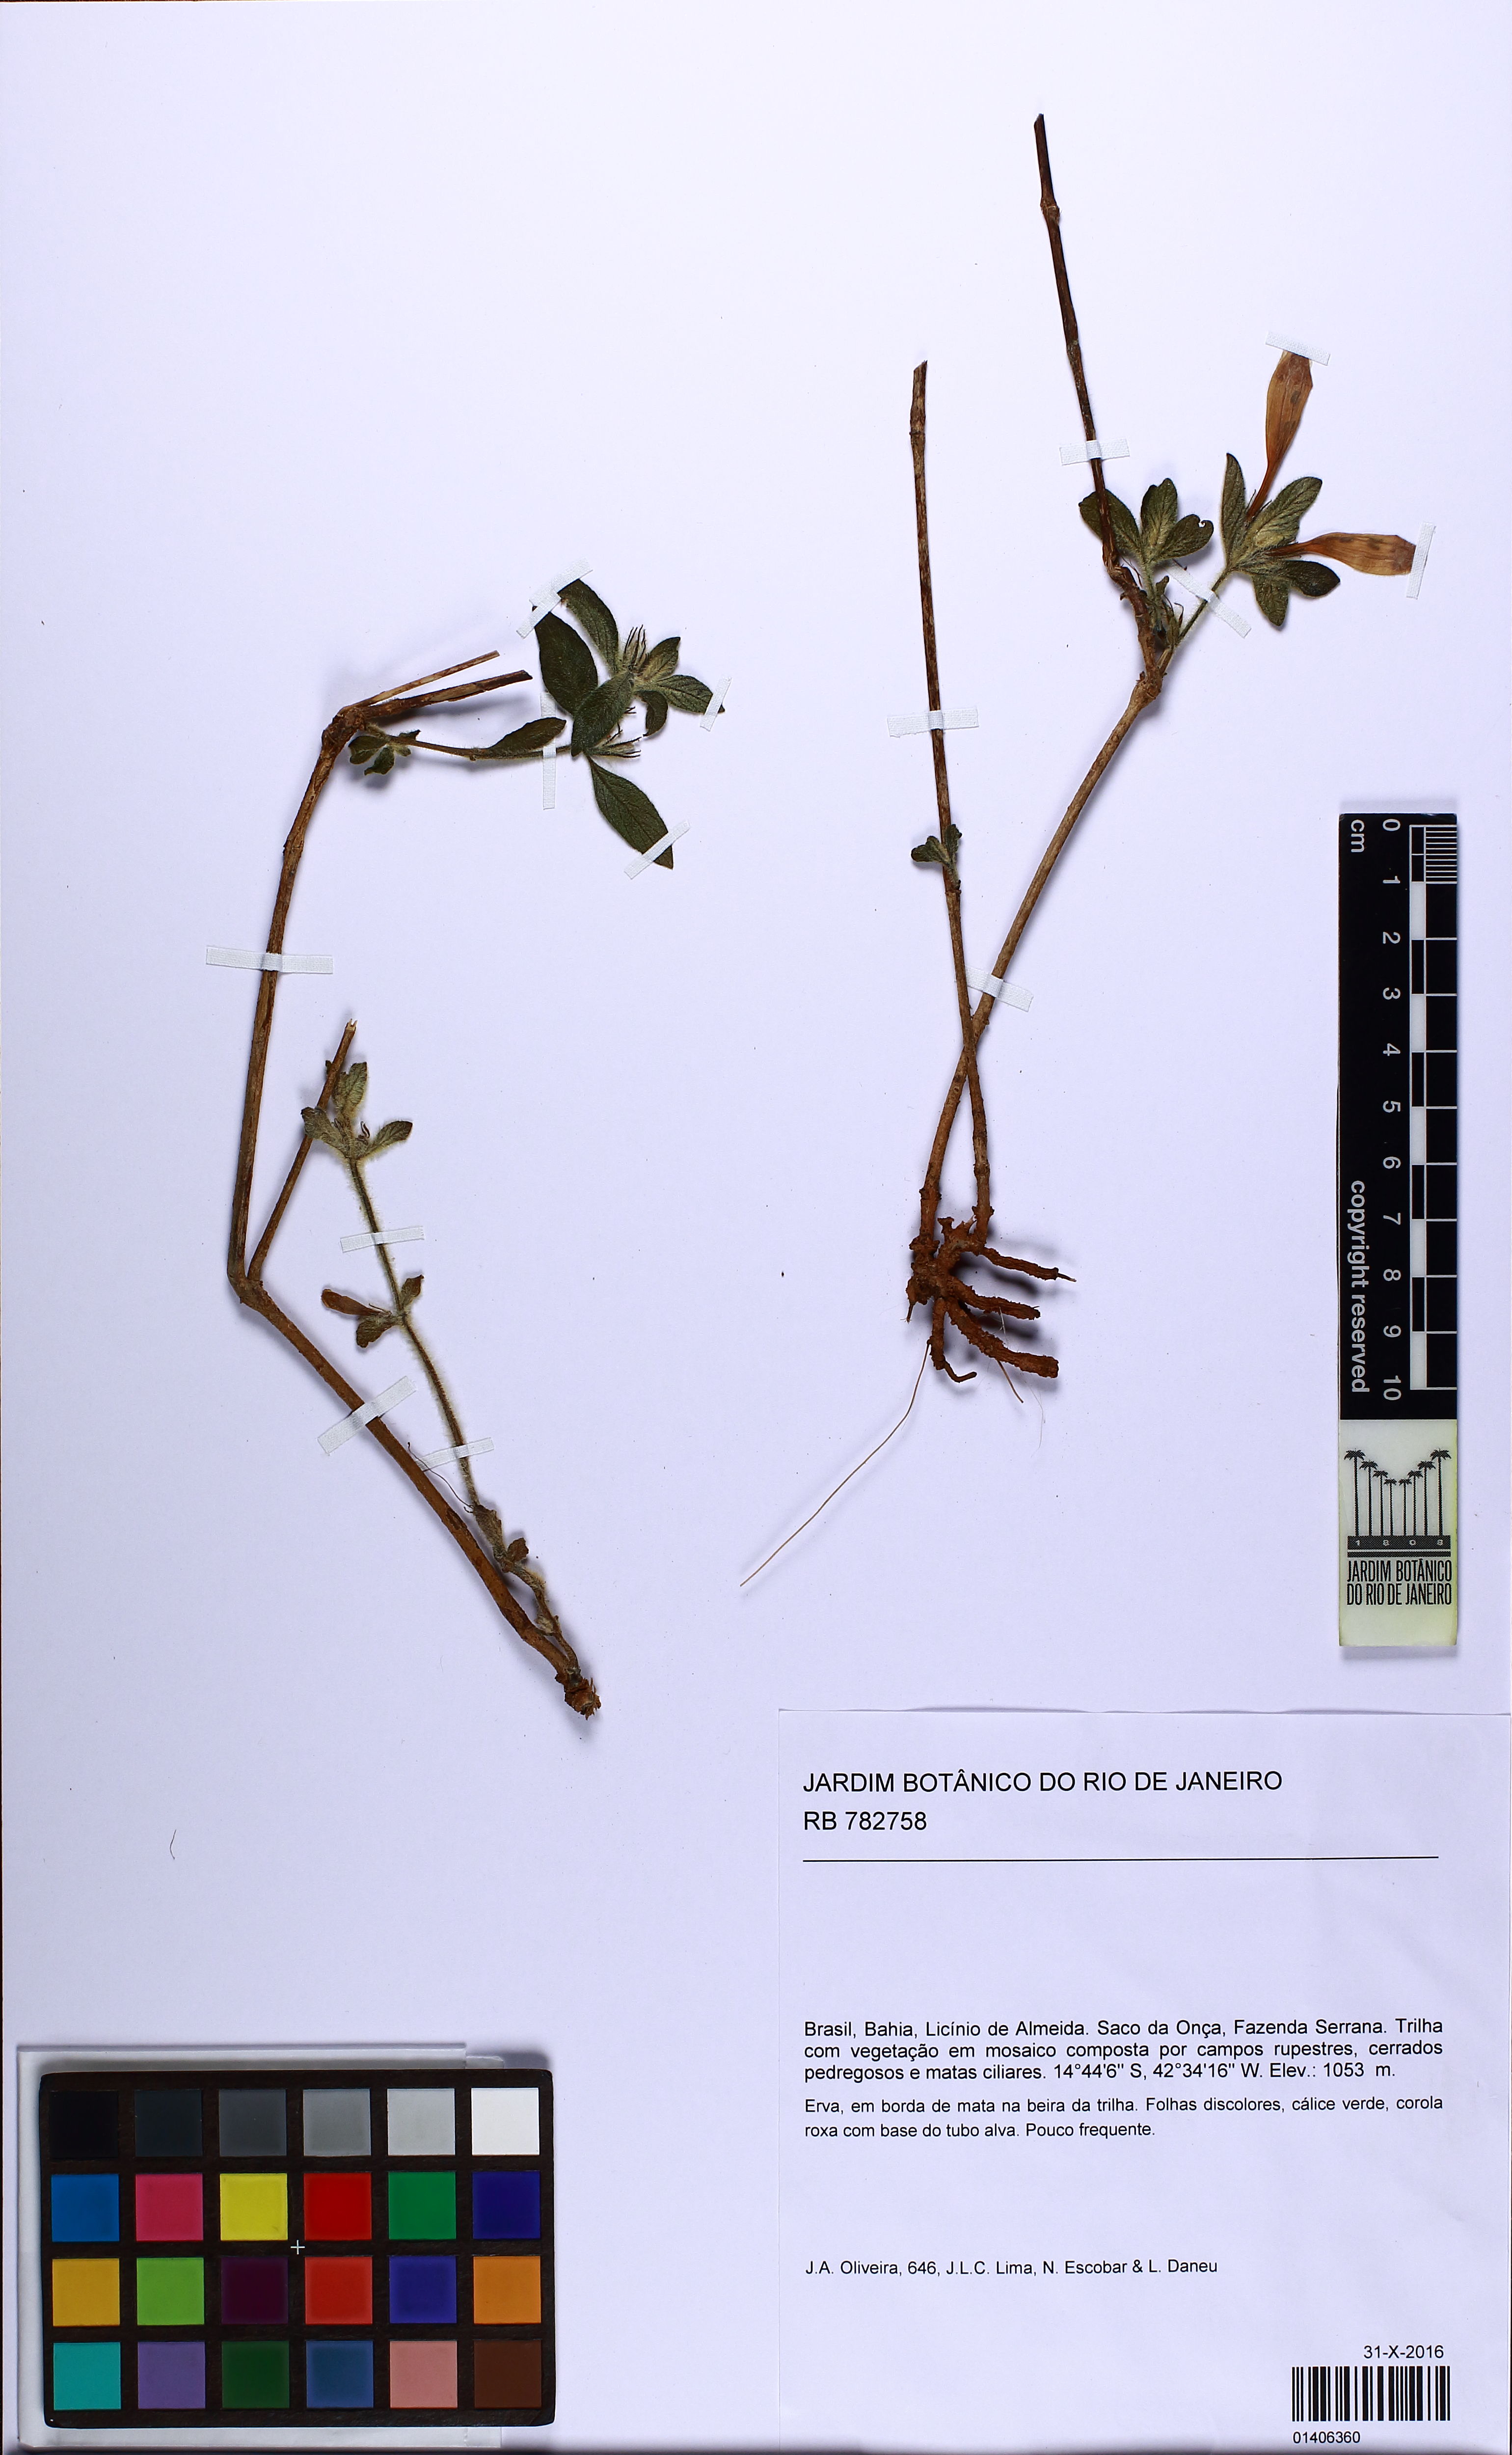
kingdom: Plantae
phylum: Tracheophyta
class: Magnoliopsida
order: Lamiales
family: Acanthaceae
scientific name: Acanthaceae
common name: Acanthaceae
